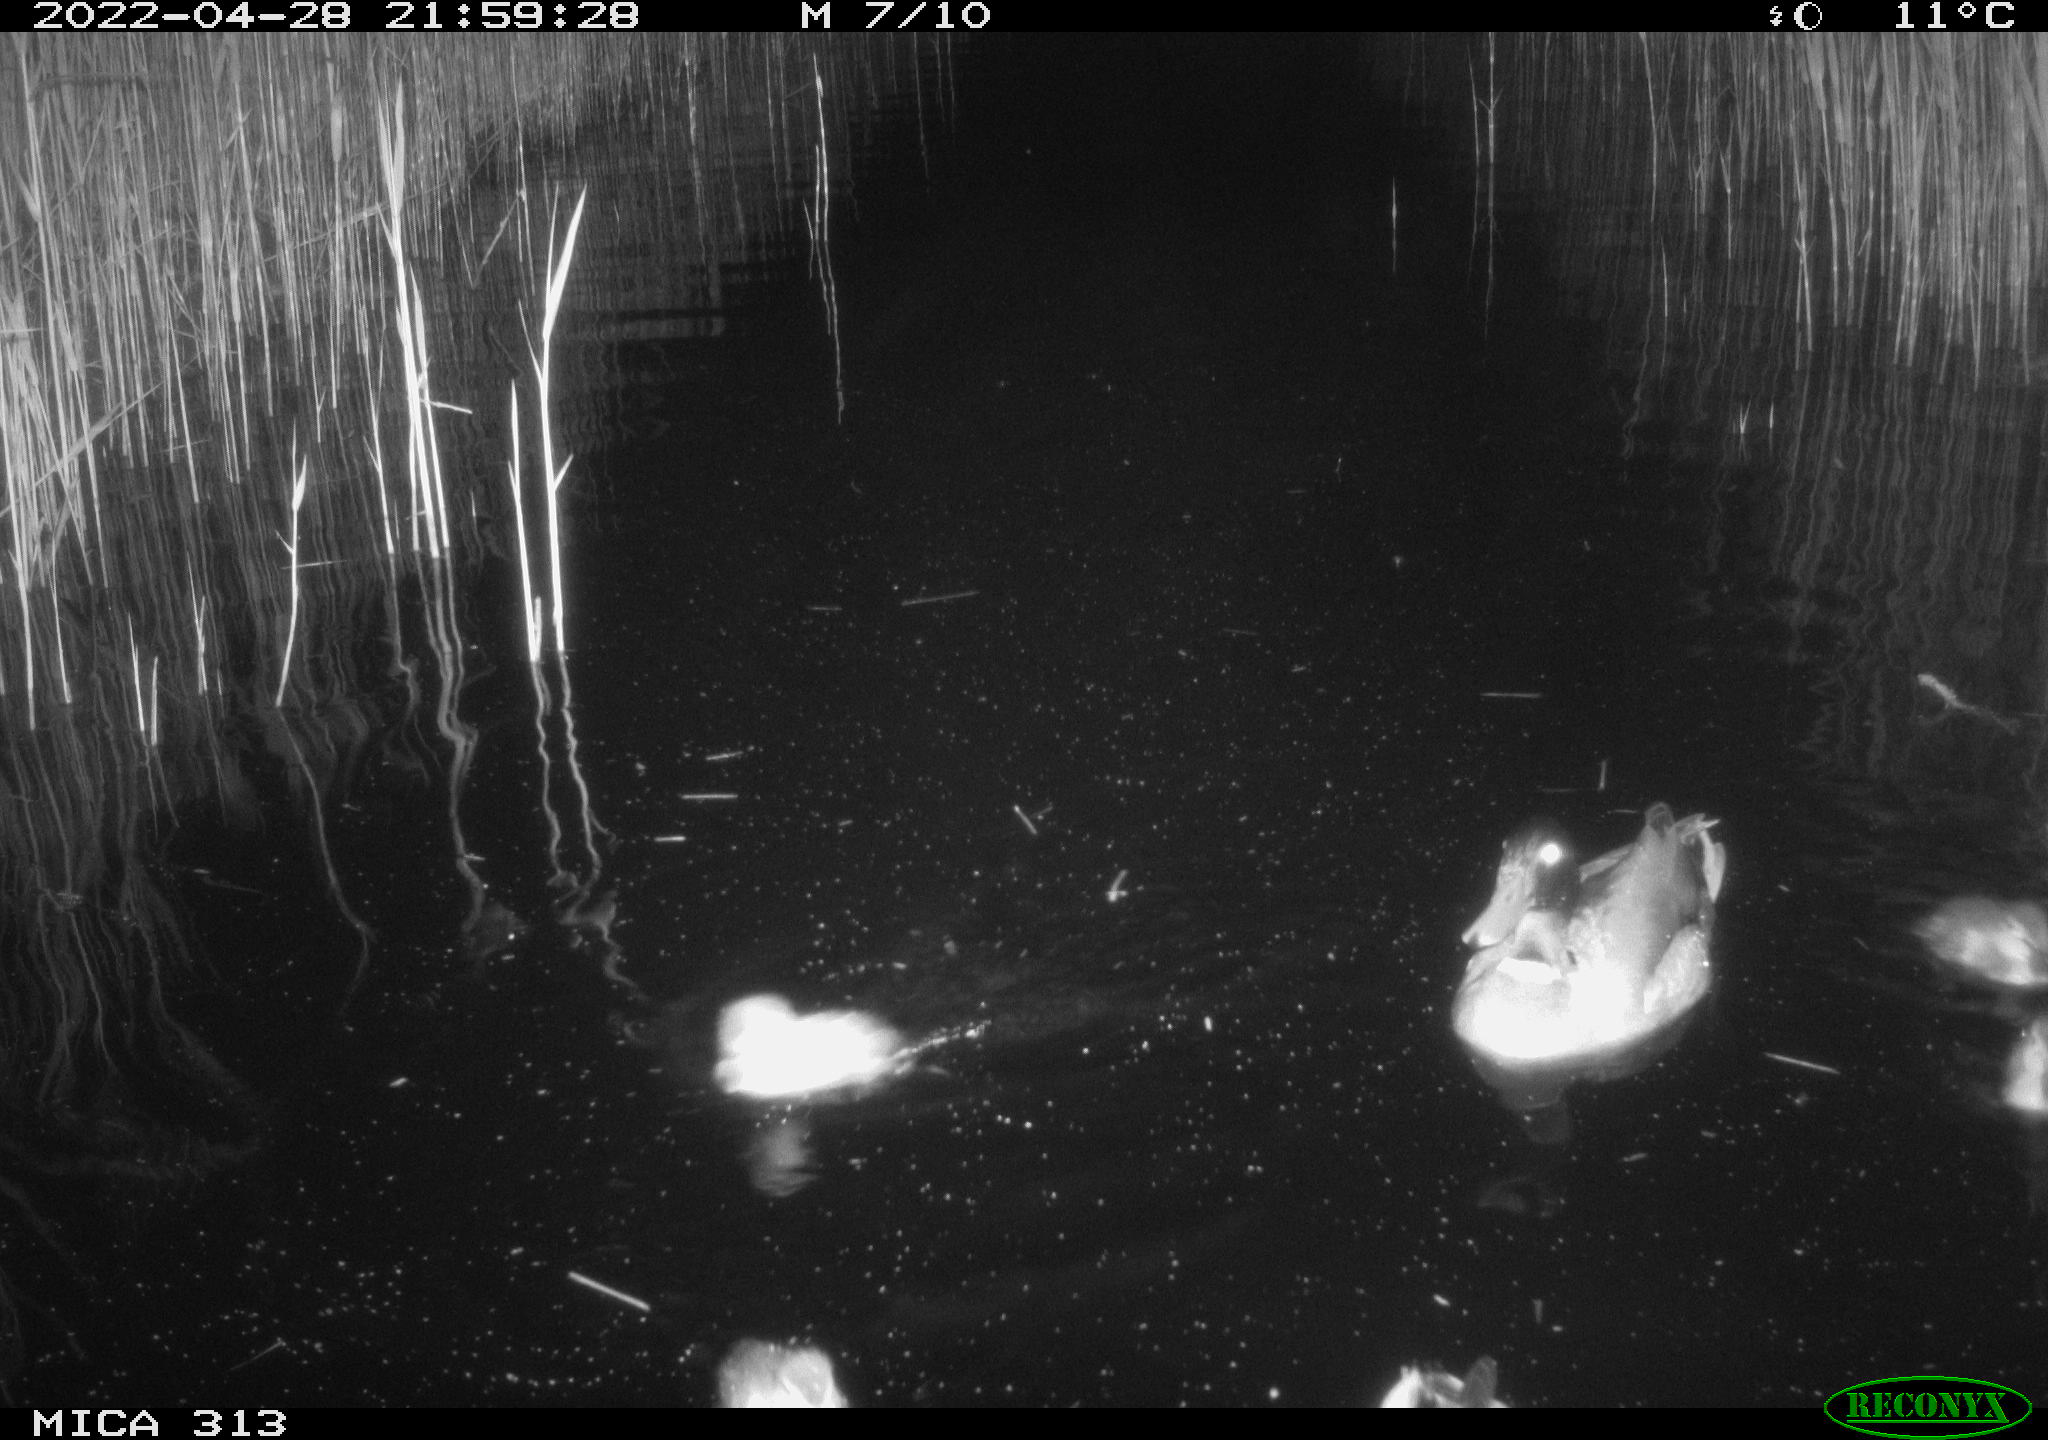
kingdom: Animalia
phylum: Chordata
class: Aves
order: Anseriformes
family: Anatidae
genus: Anas
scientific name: Anas platyrhynchos
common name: Mallard
